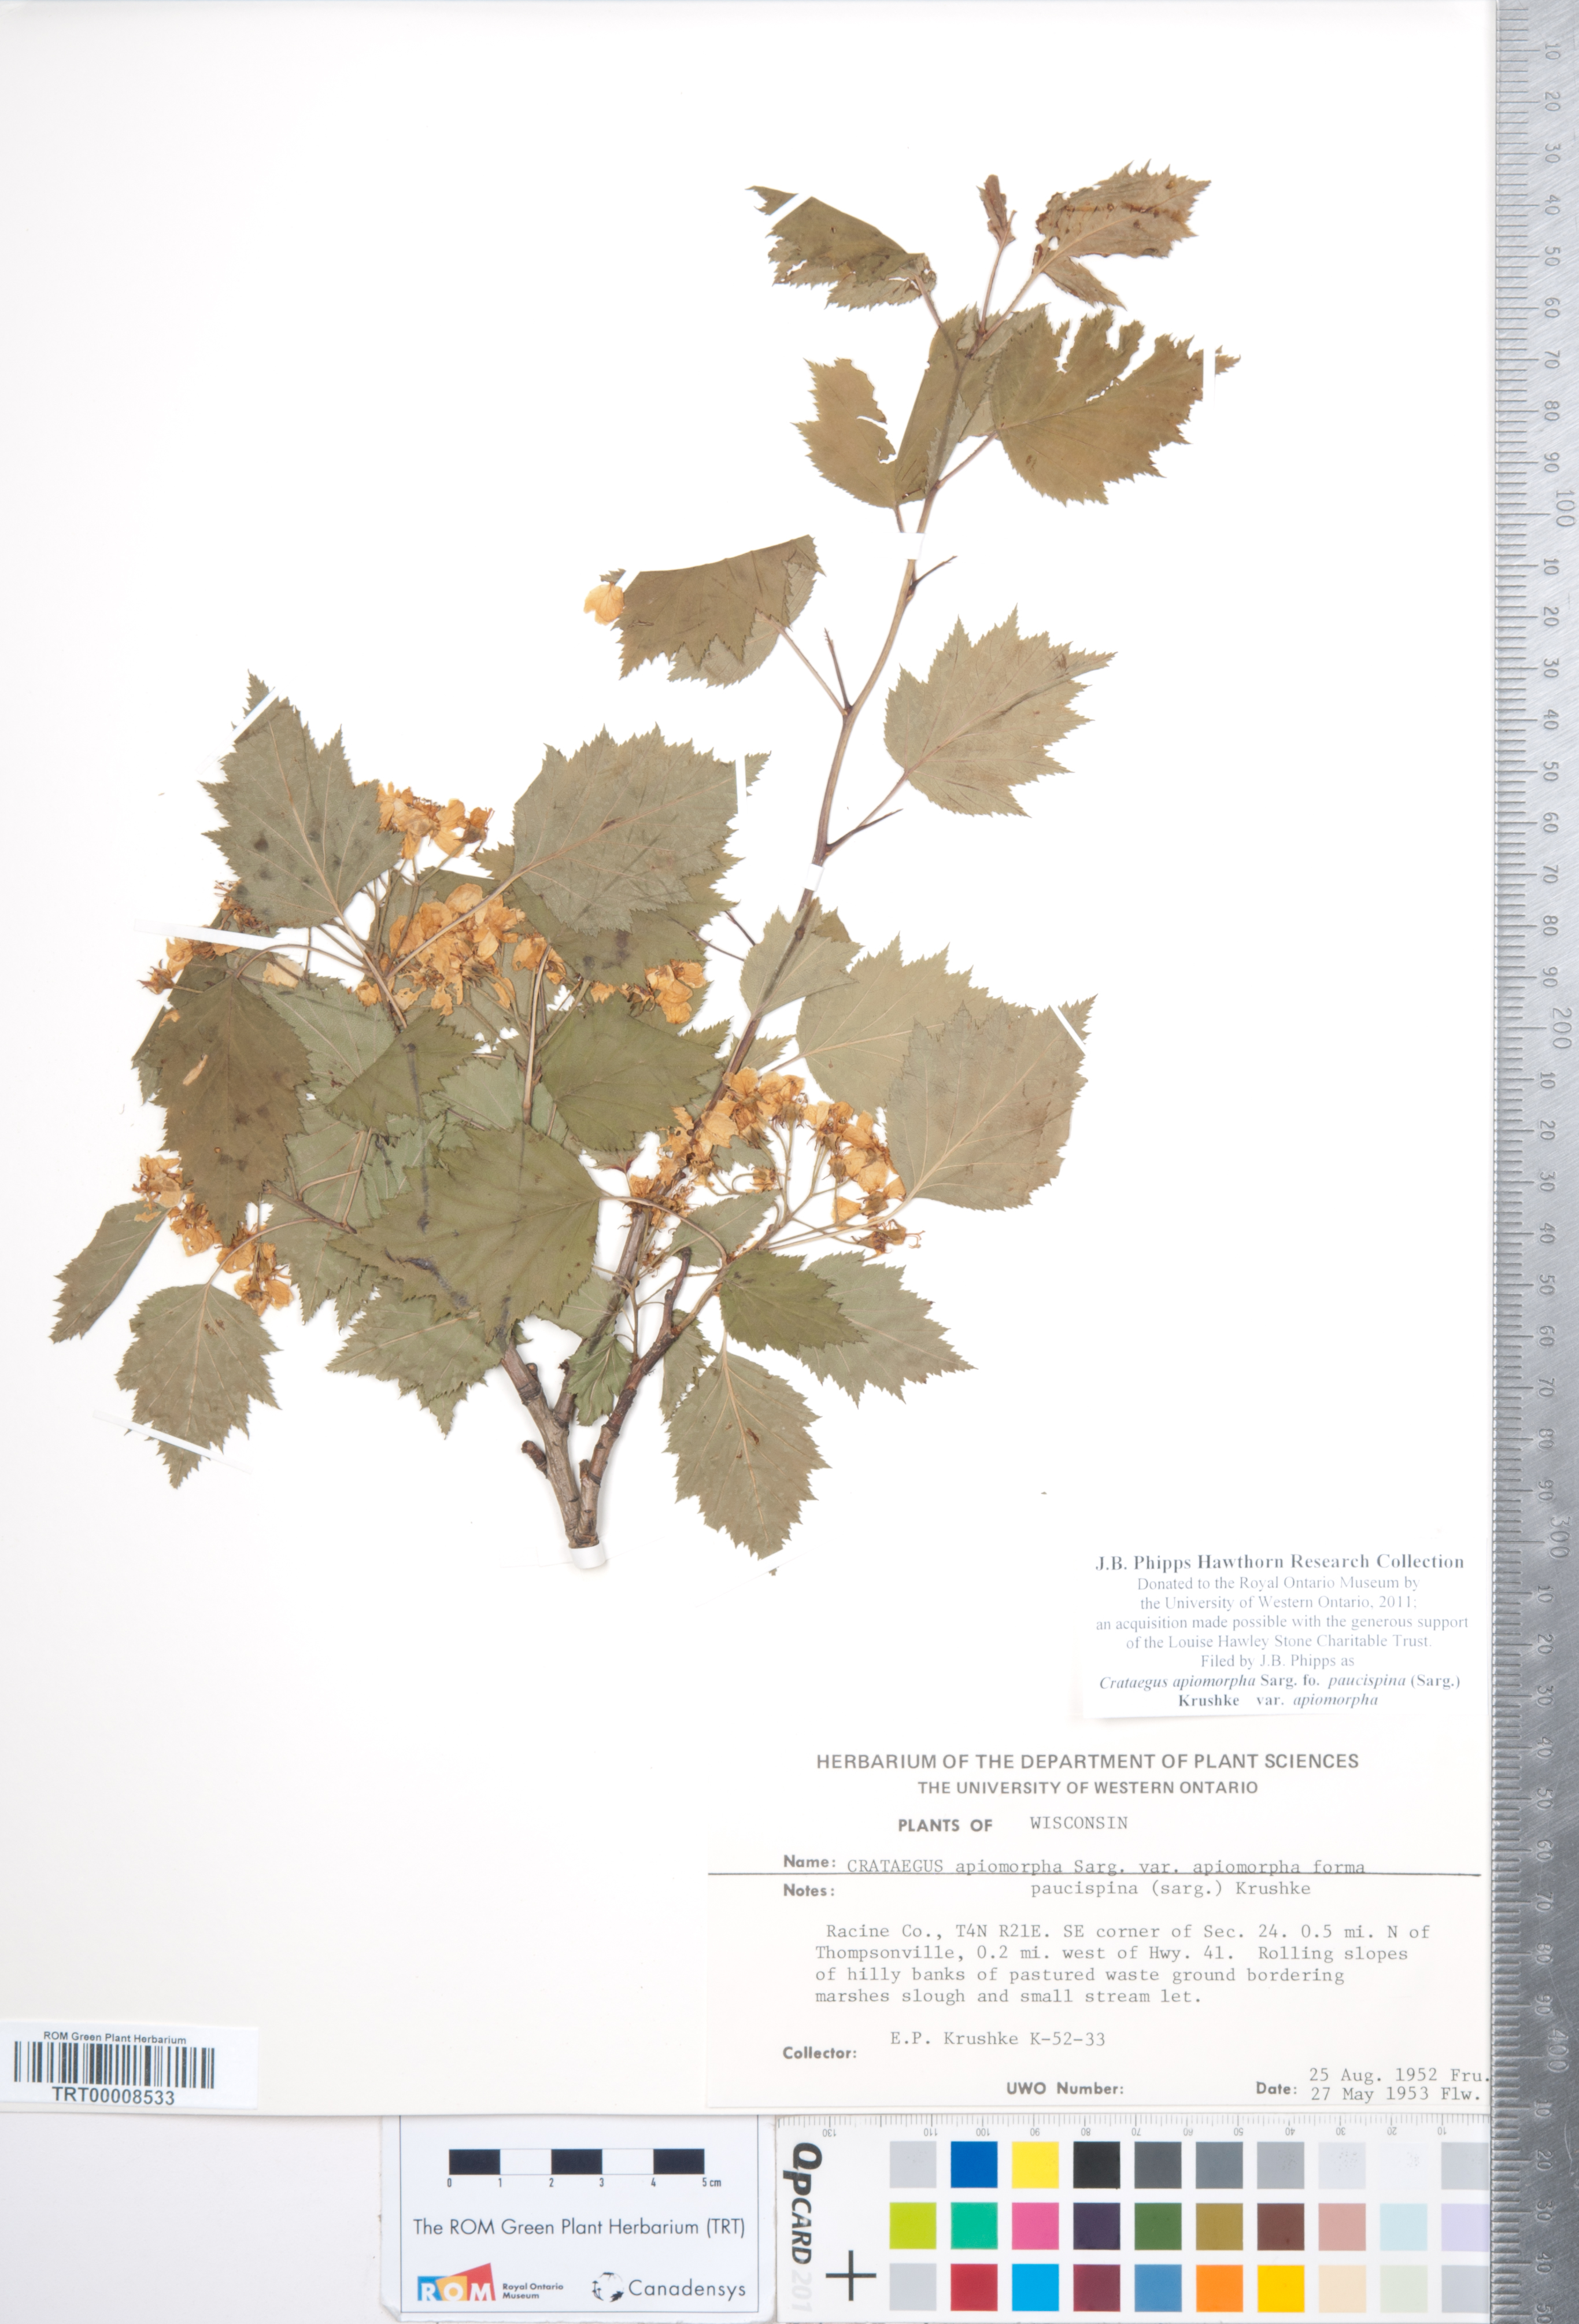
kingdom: Plantae
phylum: Tracheophyta
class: Magnoliopsida
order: Rosales
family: Rosaceae
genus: Crataegus
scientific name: Crataegus fluviatilis
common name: Fort sheridan hawthorn
